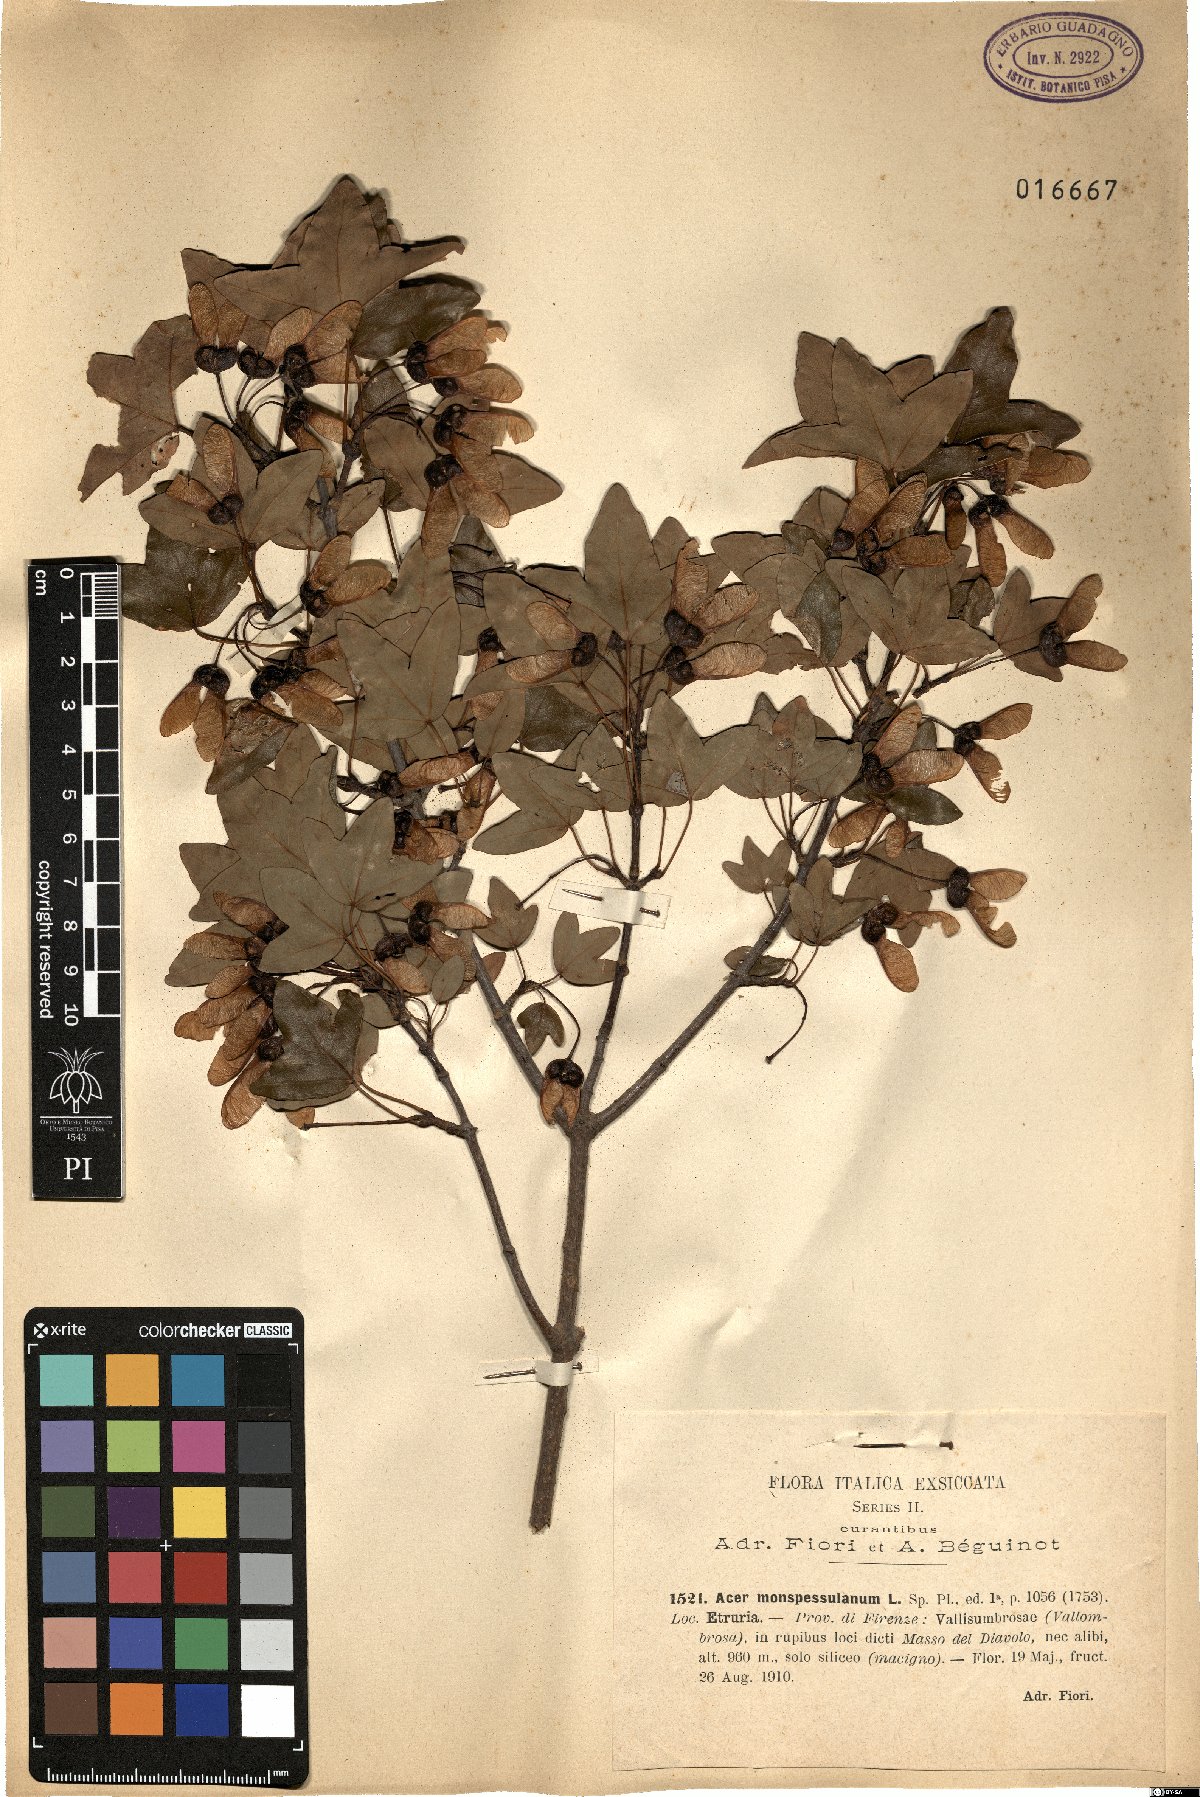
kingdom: Plantae
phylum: Tracheophyta
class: Magnoliopsida
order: Sapindales
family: Sapindaceae
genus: Acer
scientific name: Acer monspessulanum
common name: Montpellier maple
